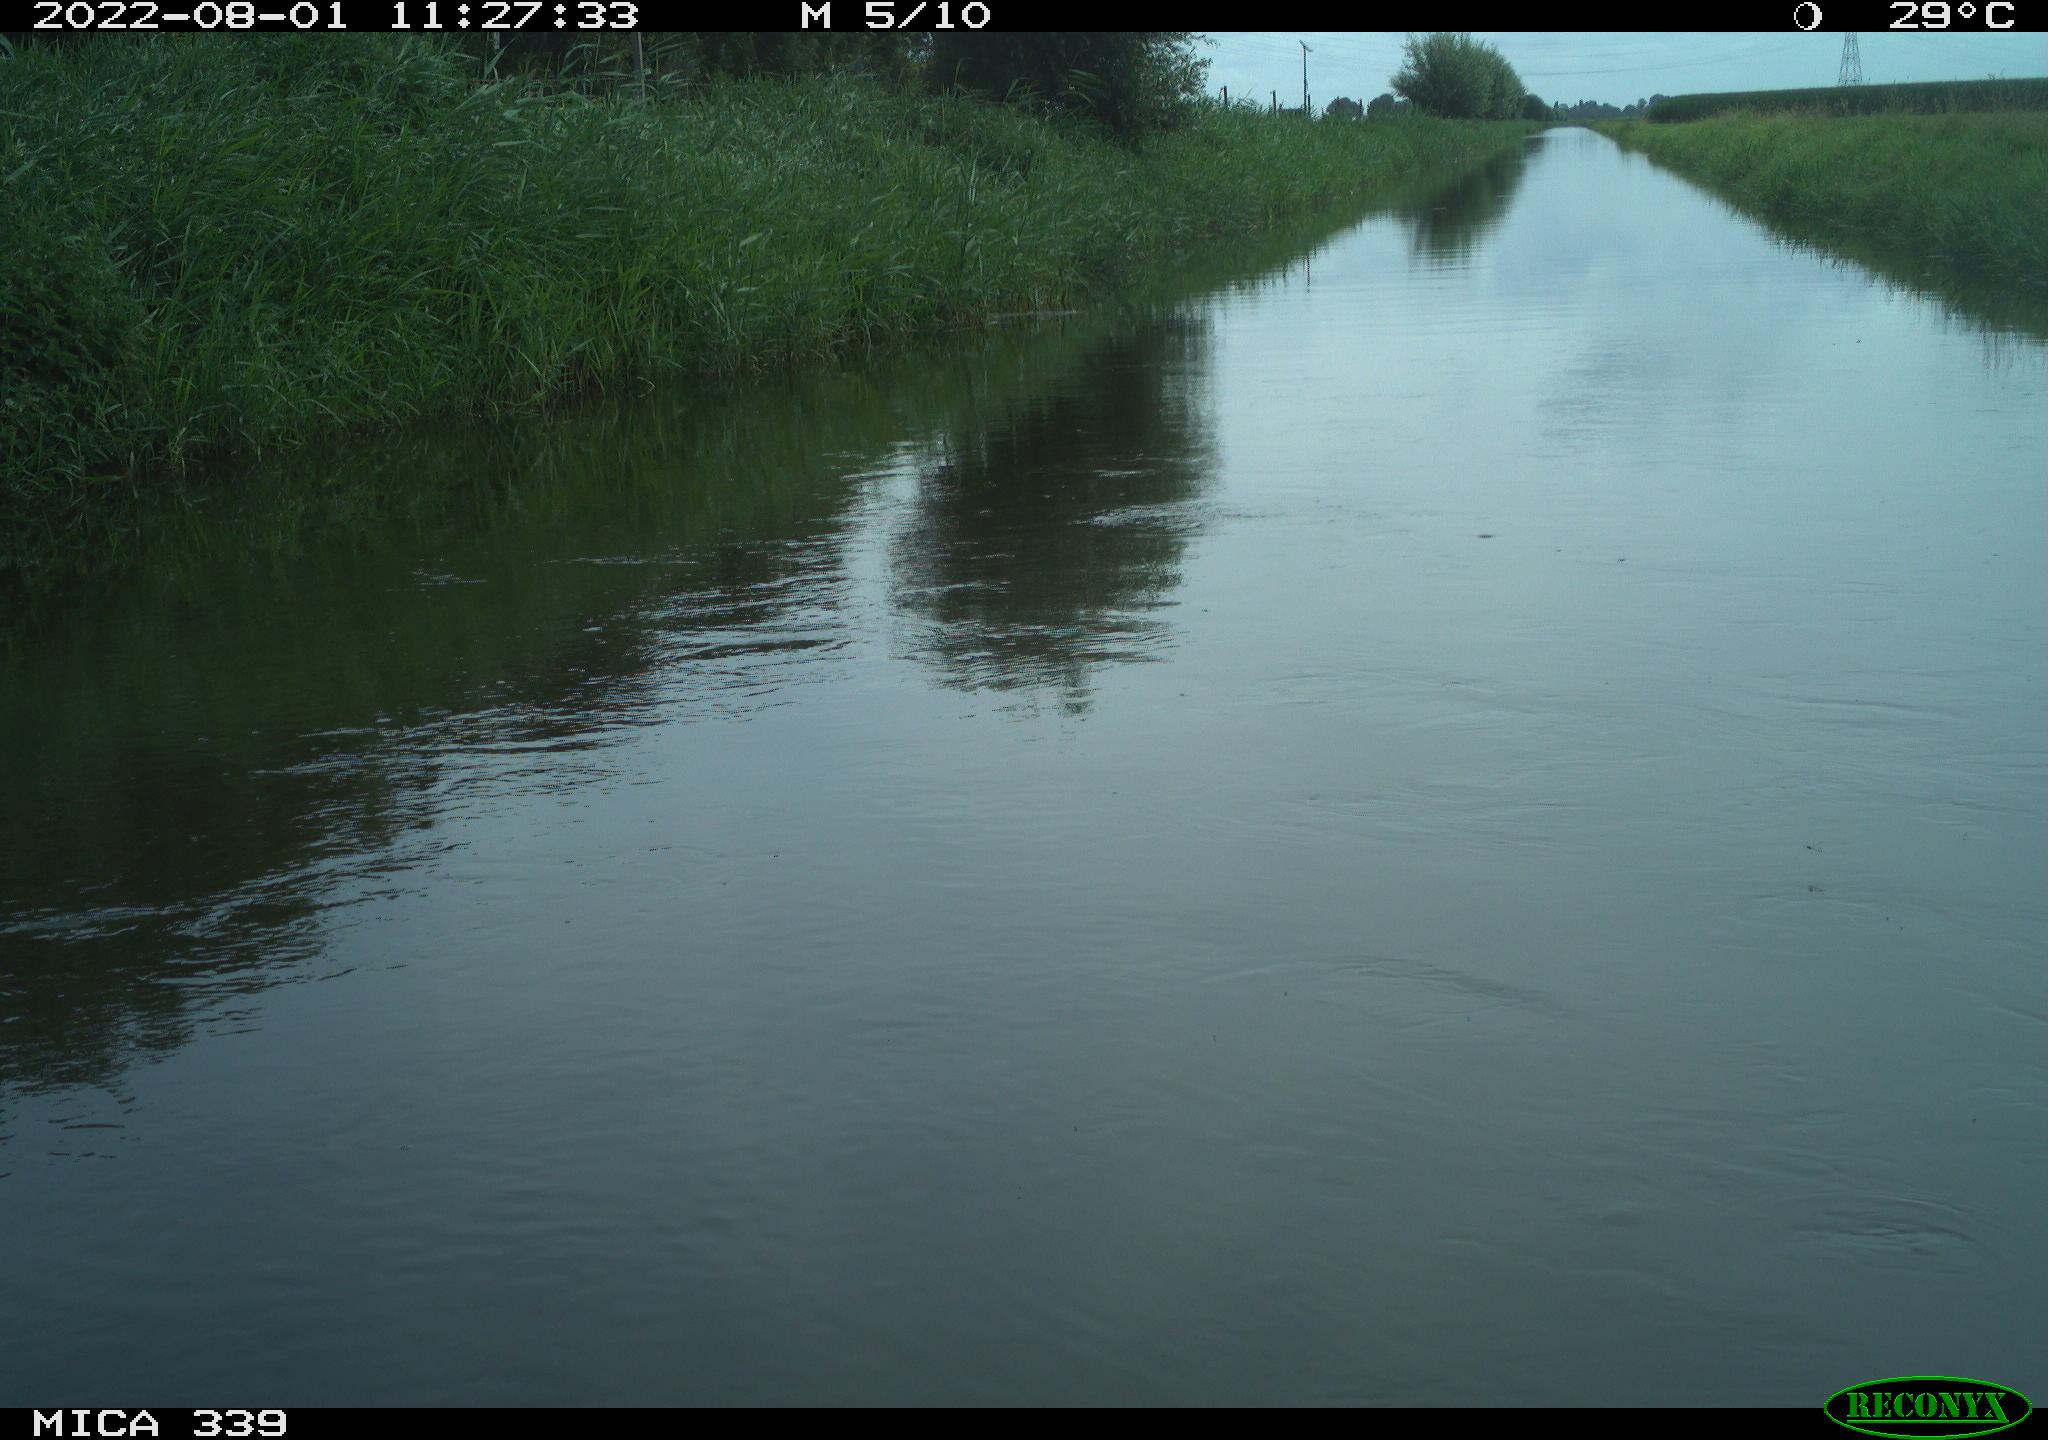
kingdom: Animalia
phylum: Chordata
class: Aves
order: Pelecaniformes
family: Ardeidae
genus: Ardea
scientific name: Ardea cinerea
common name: Grey heron
